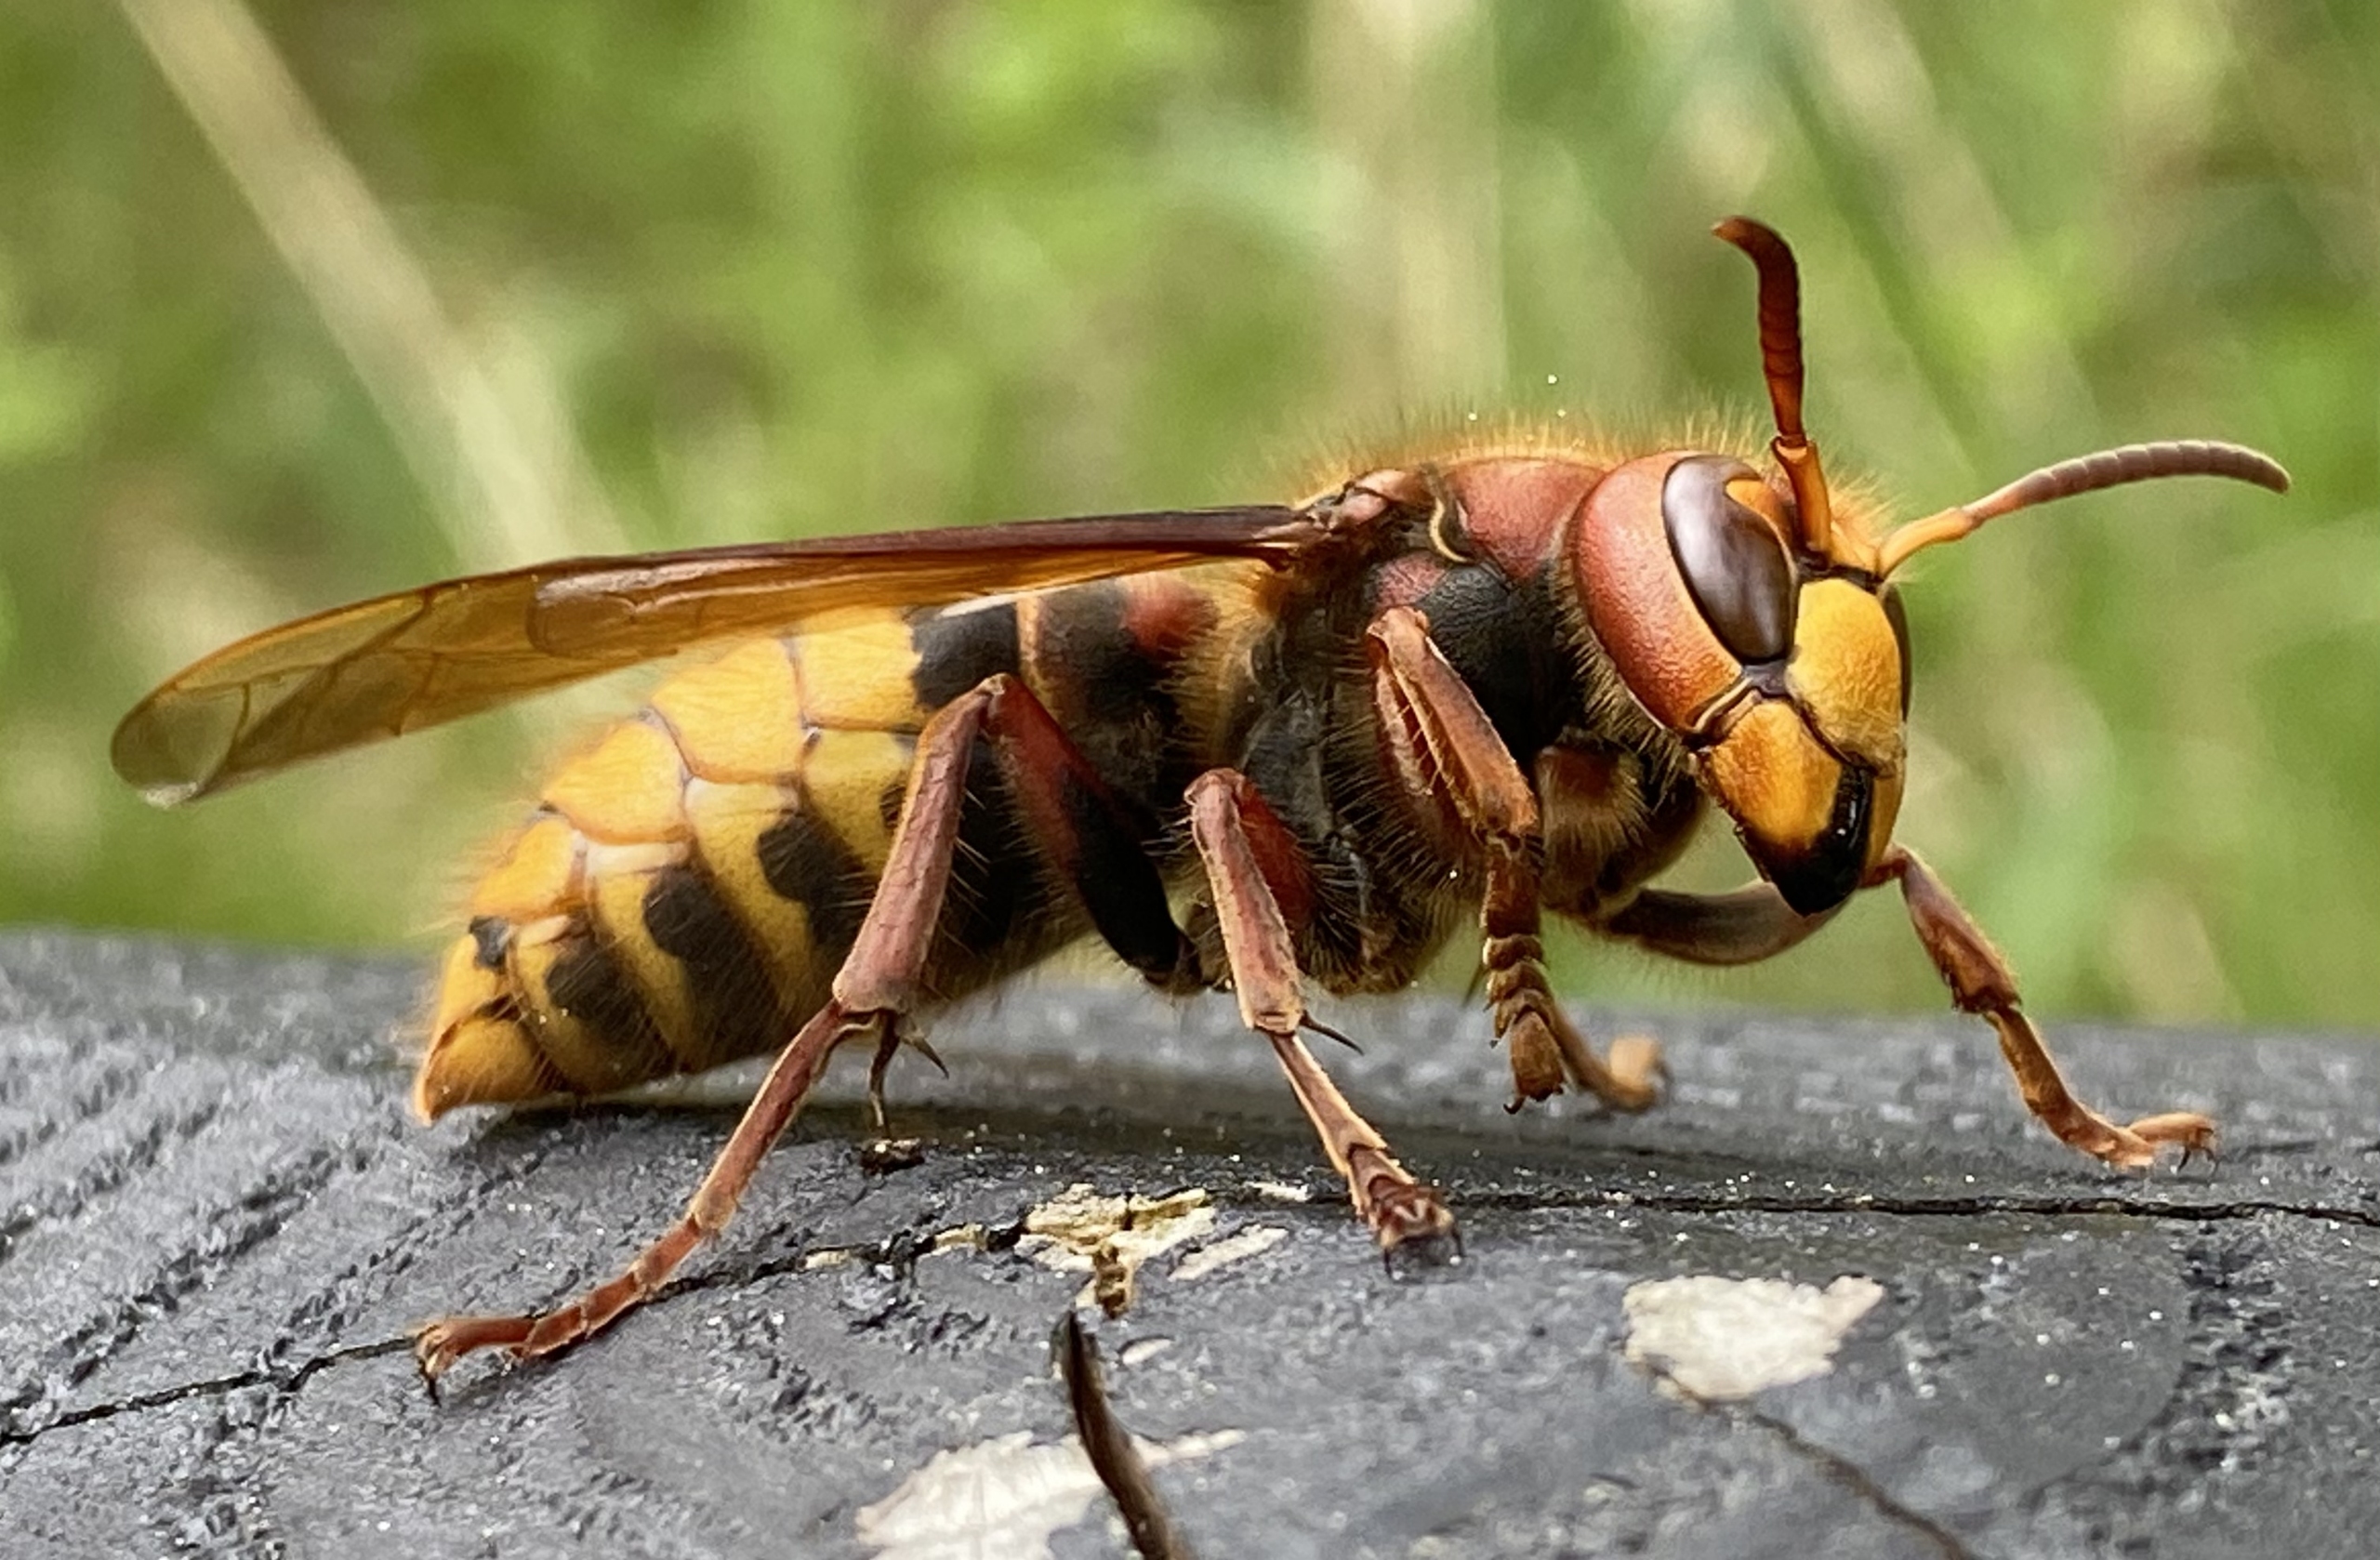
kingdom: Animalia
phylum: Arthropoda
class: Insecta
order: Hymenoptera
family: Vespidae
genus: Vespa
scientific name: Vespa crabro
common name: Stor gedehams
